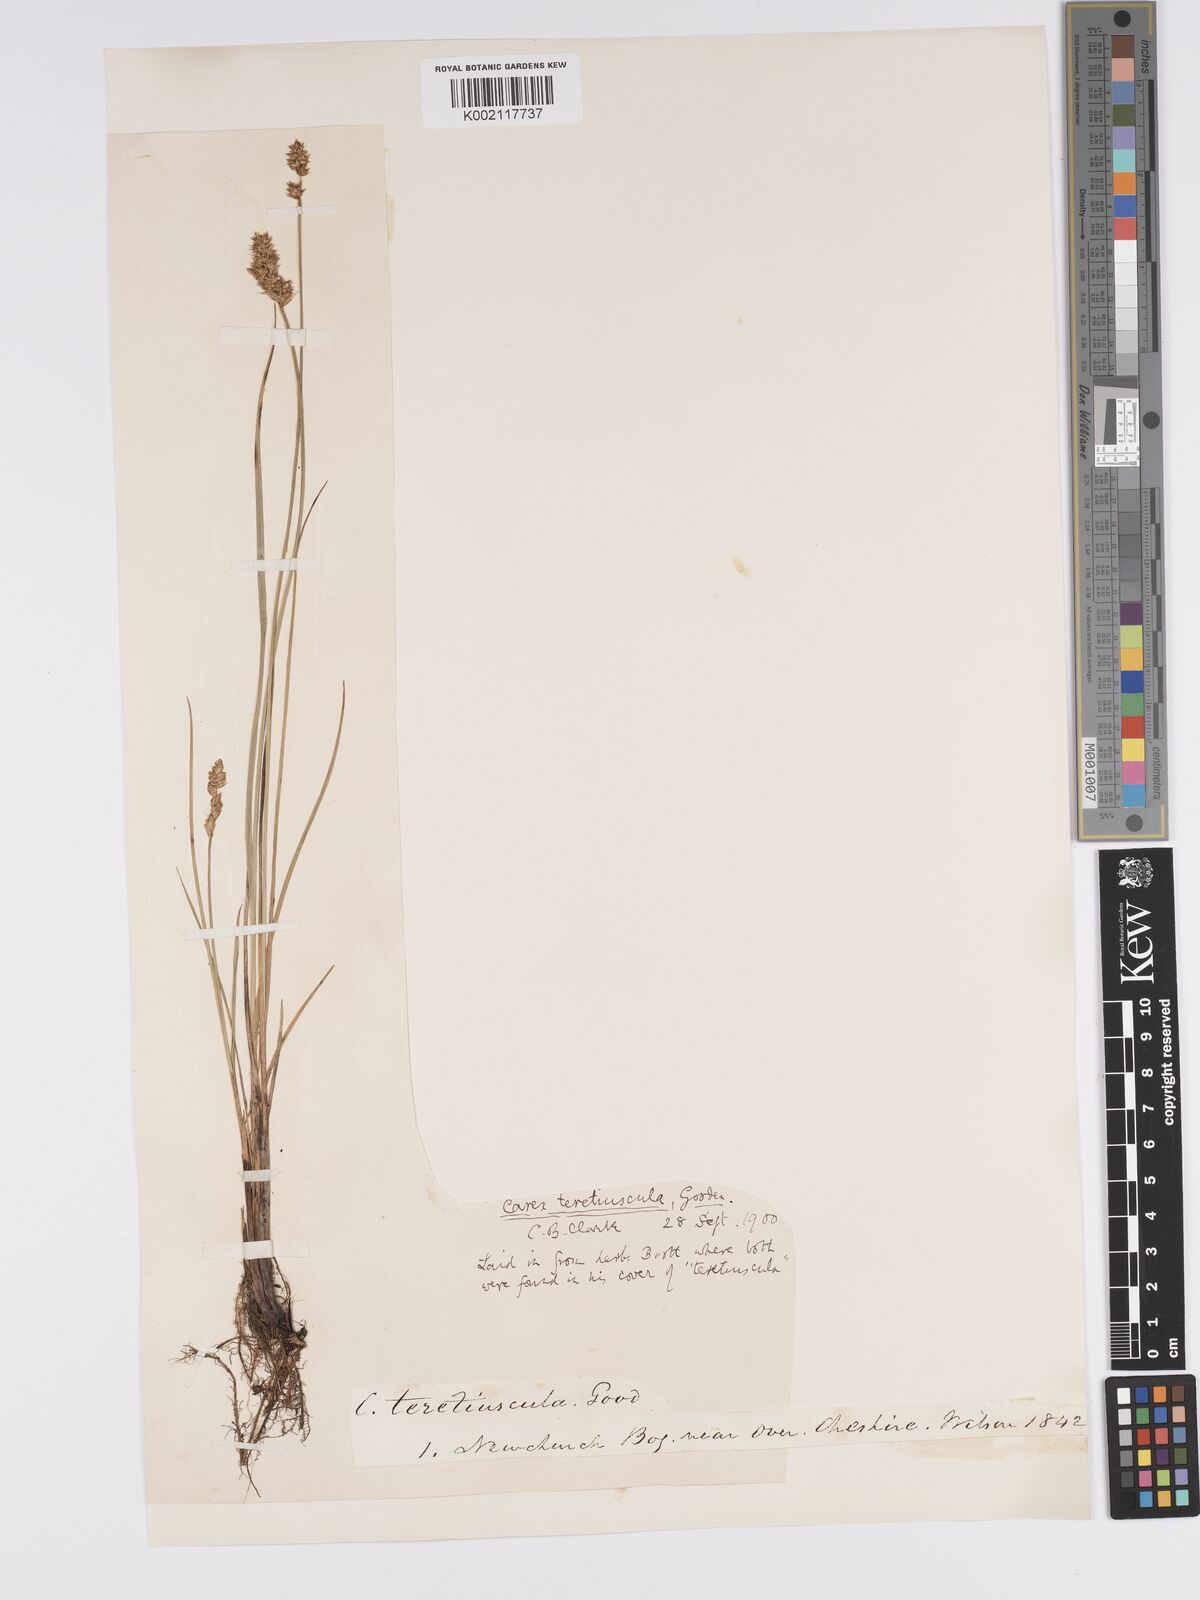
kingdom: Plantae
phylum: Tracheophyta
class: Liliopsida
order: Poales
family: Cyperaceae
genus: Carex
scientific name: Carex diandra
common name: Lesser tussock-sedge
